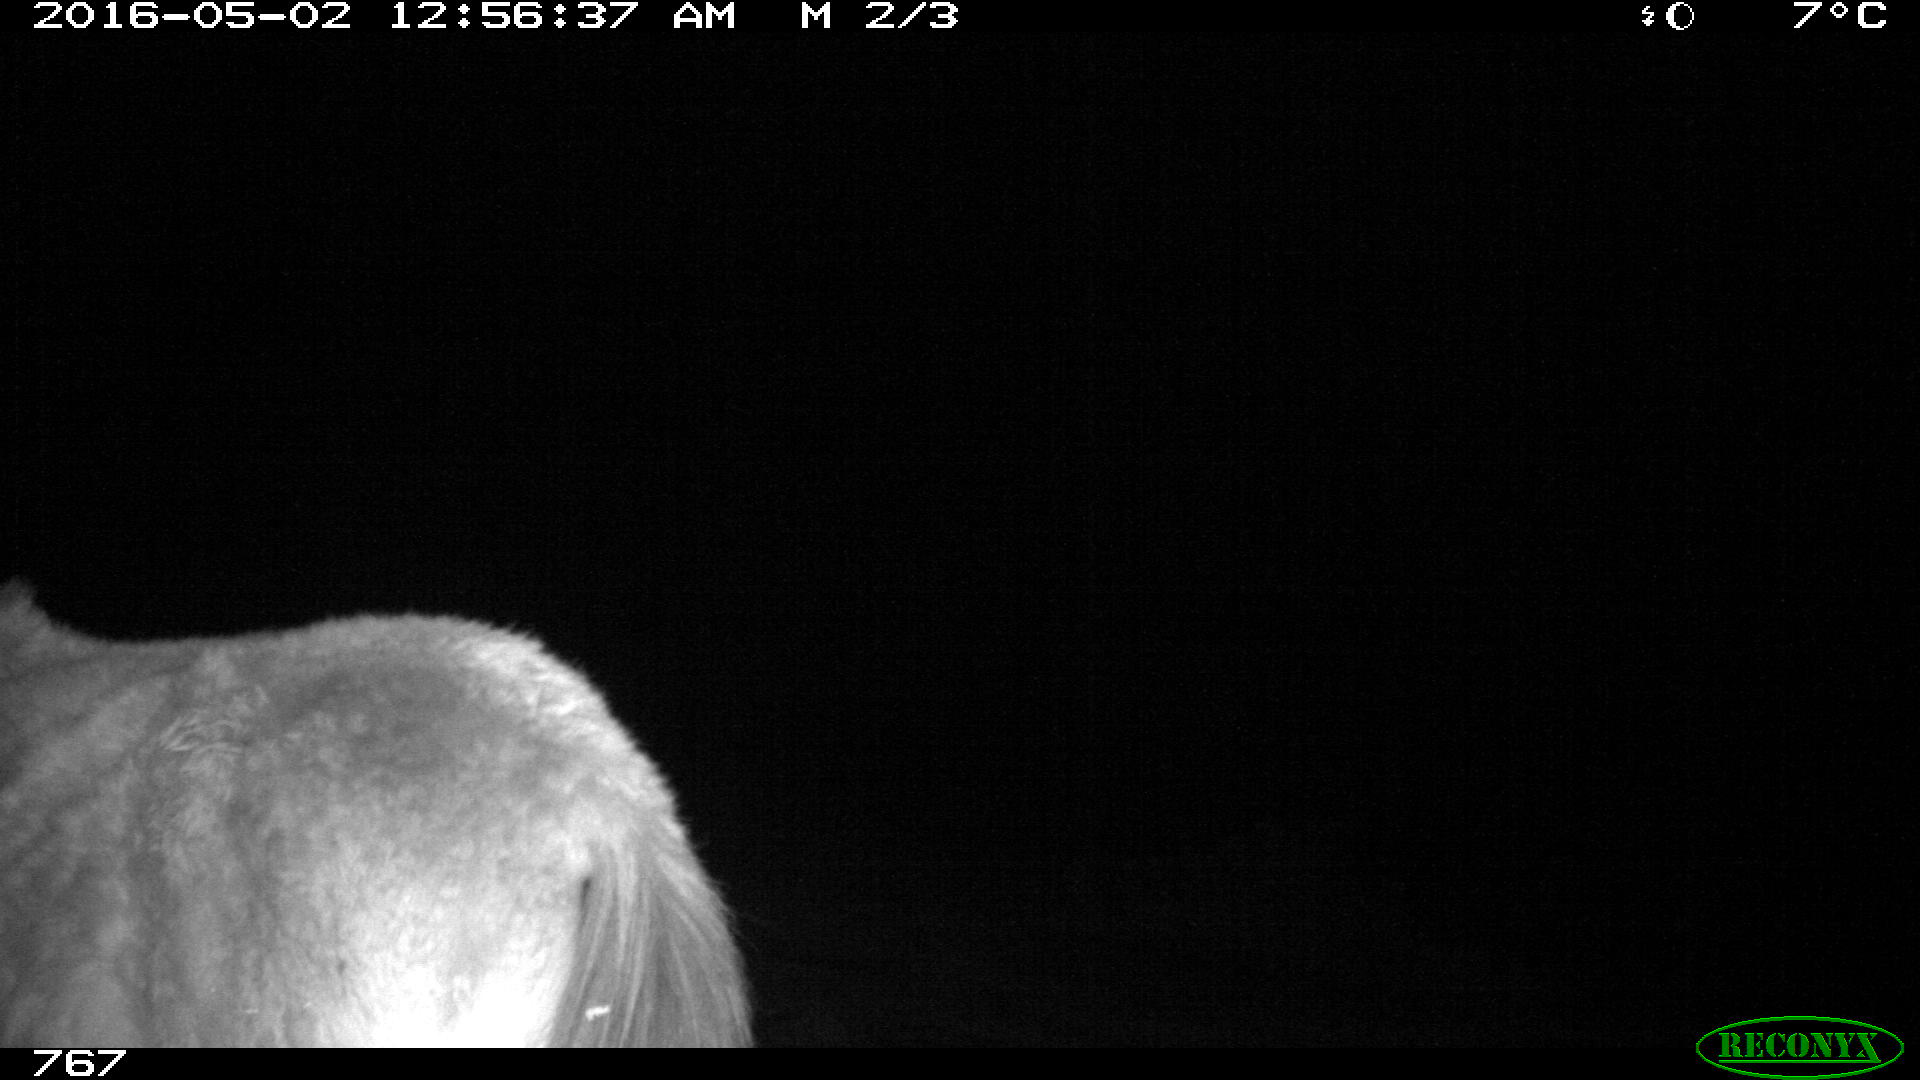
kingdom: Animalia
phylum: Chordata
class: Mammalia
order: Perissodactyla
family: Equidae
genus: Equus
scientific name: Equus caballus
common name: Horse
